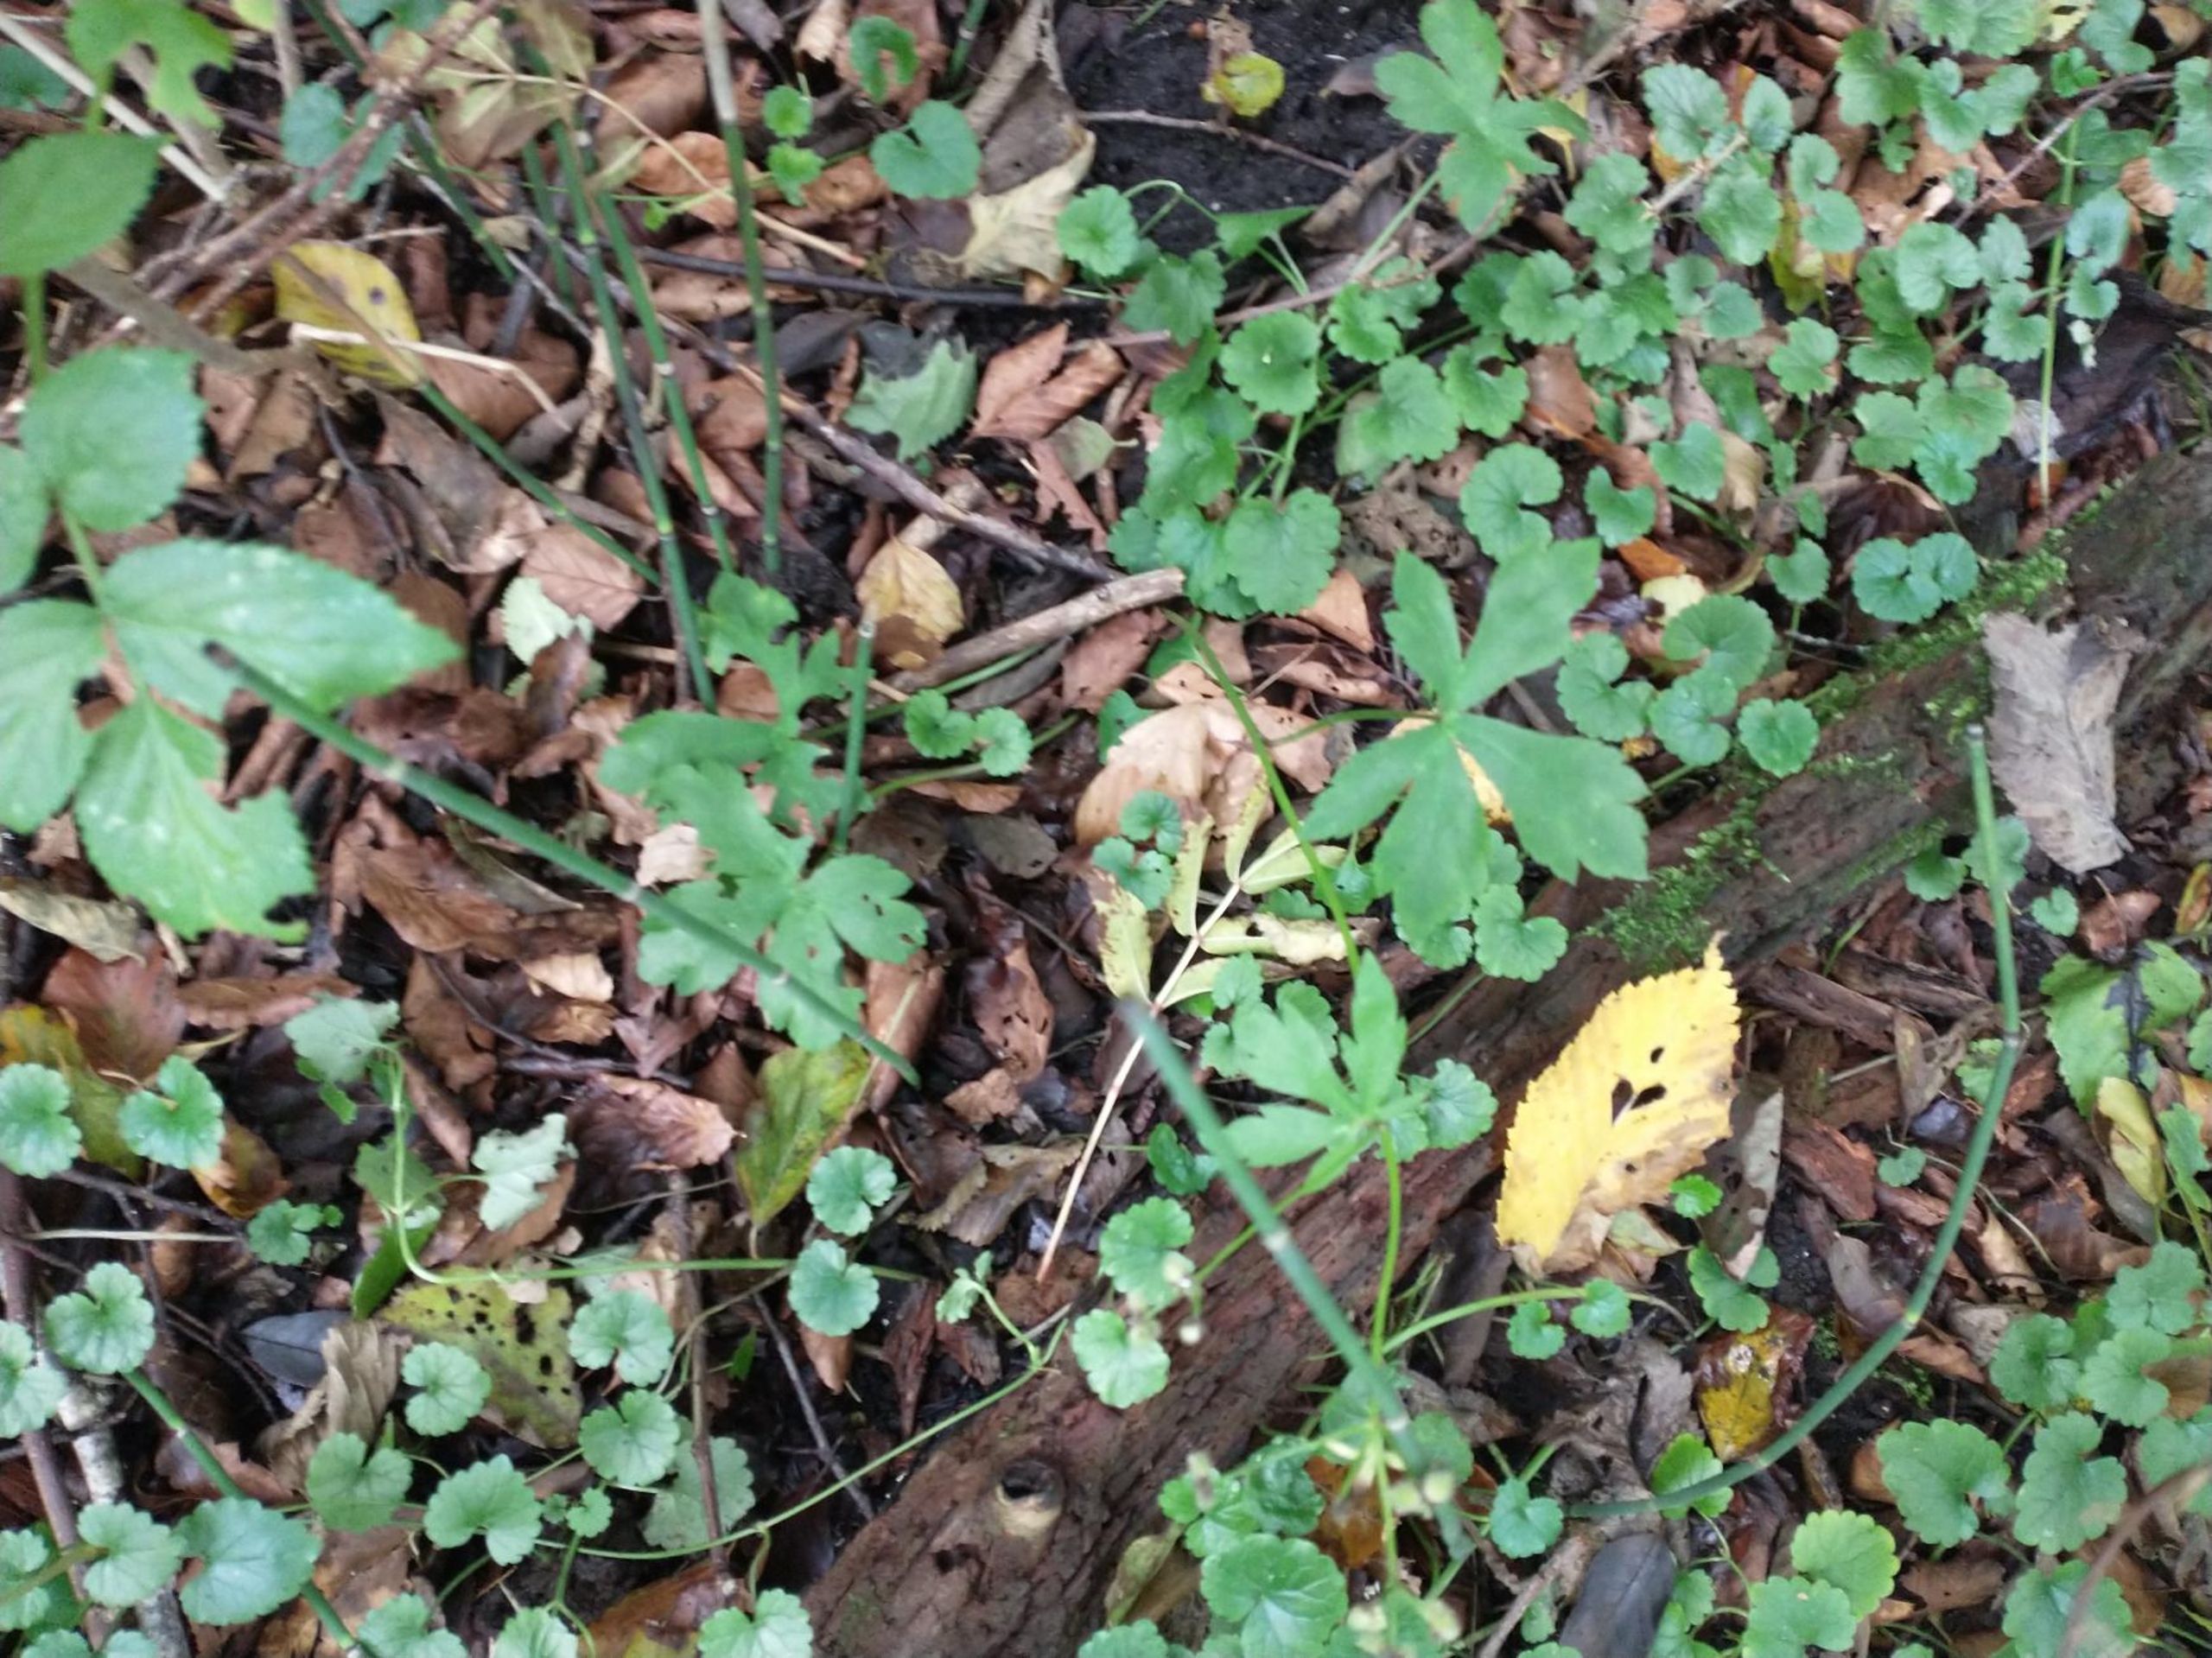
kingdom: Plantae
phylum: Tracheophyta
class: Magnoliopsida
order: Apiales
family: Apiaceae
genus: Sanicula
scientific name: Sanicula europaea
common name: Sanikel
